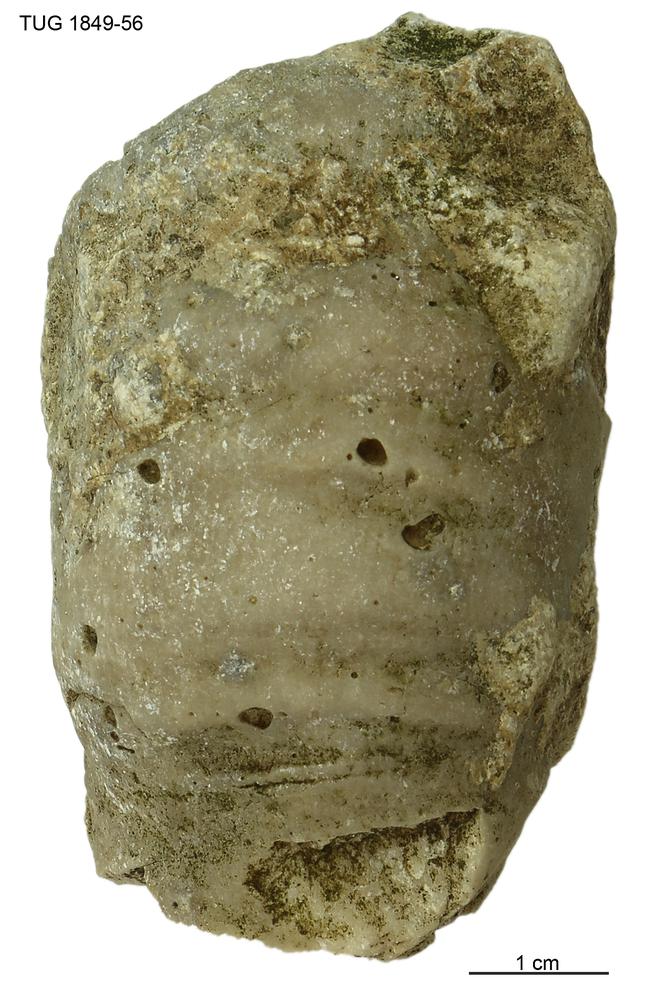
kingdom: Animalia
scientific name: Animalia
